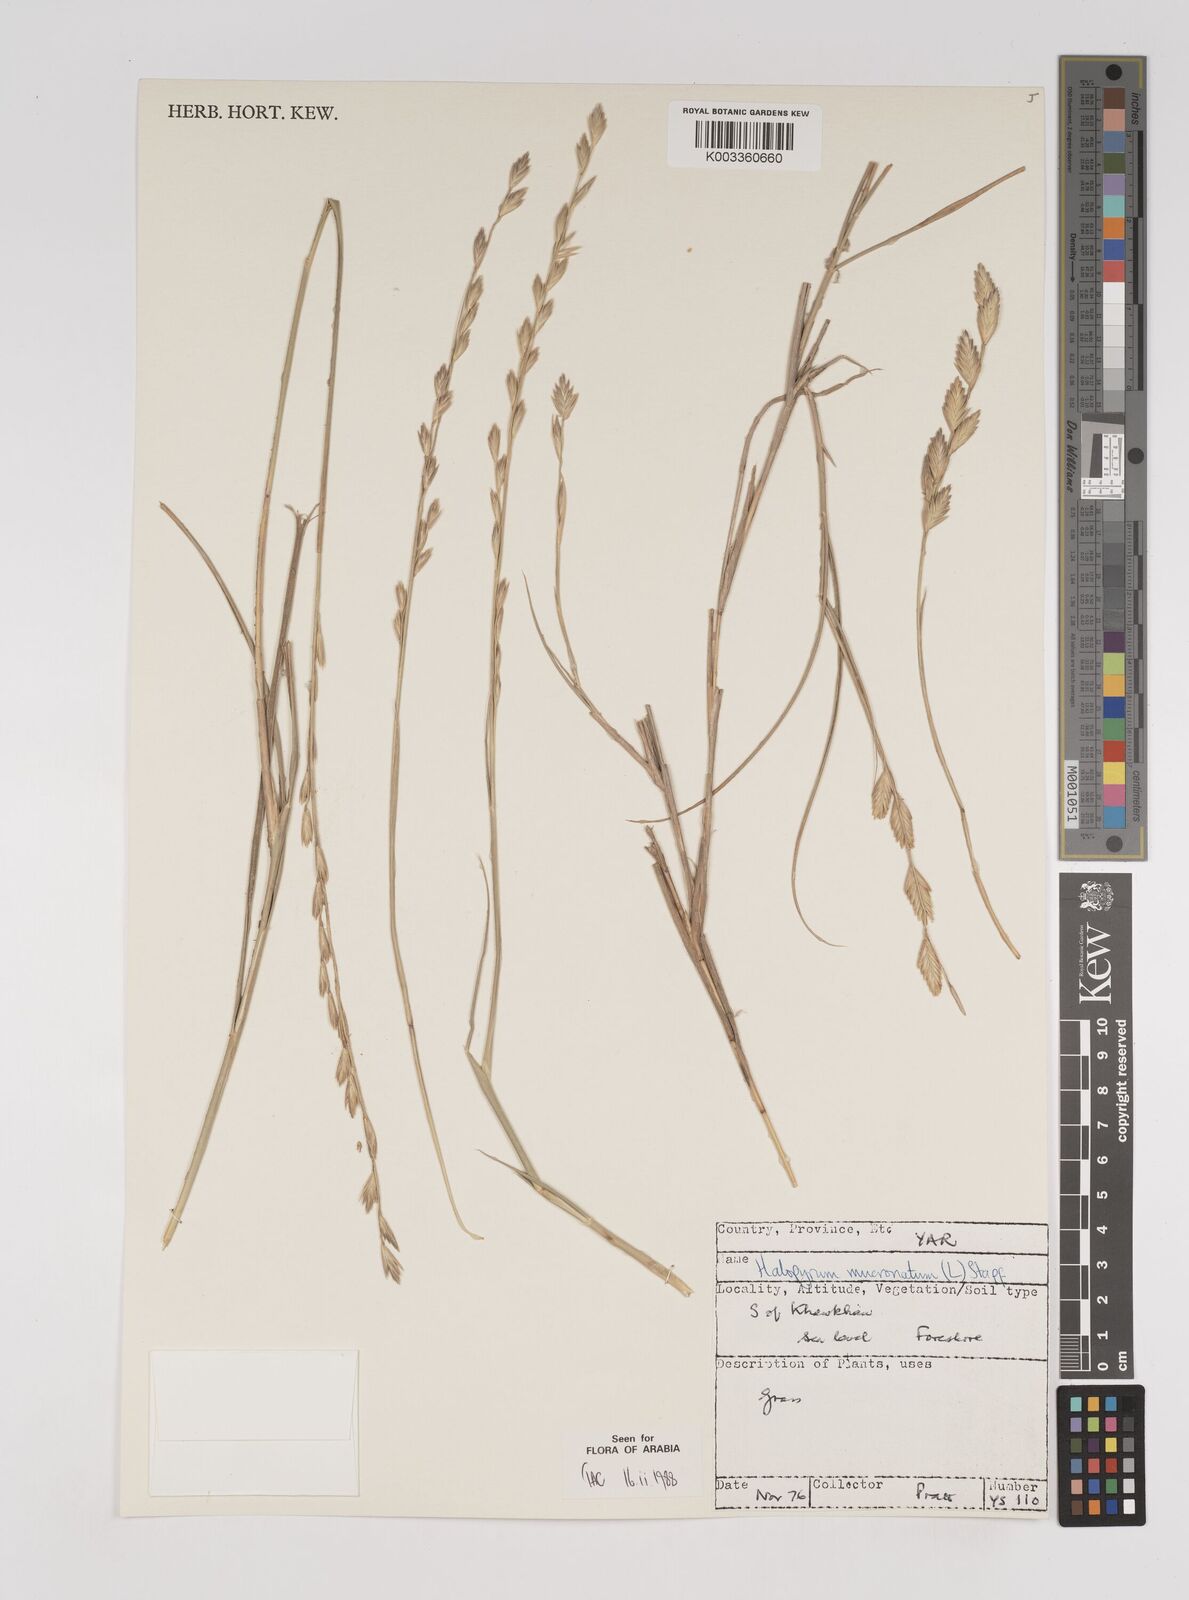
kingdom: Plantae
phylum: Tracheophyta
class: Liliopsida
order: Poales
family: Poaceae
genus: Halopyrum
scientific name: Halopyrum mucronatum
